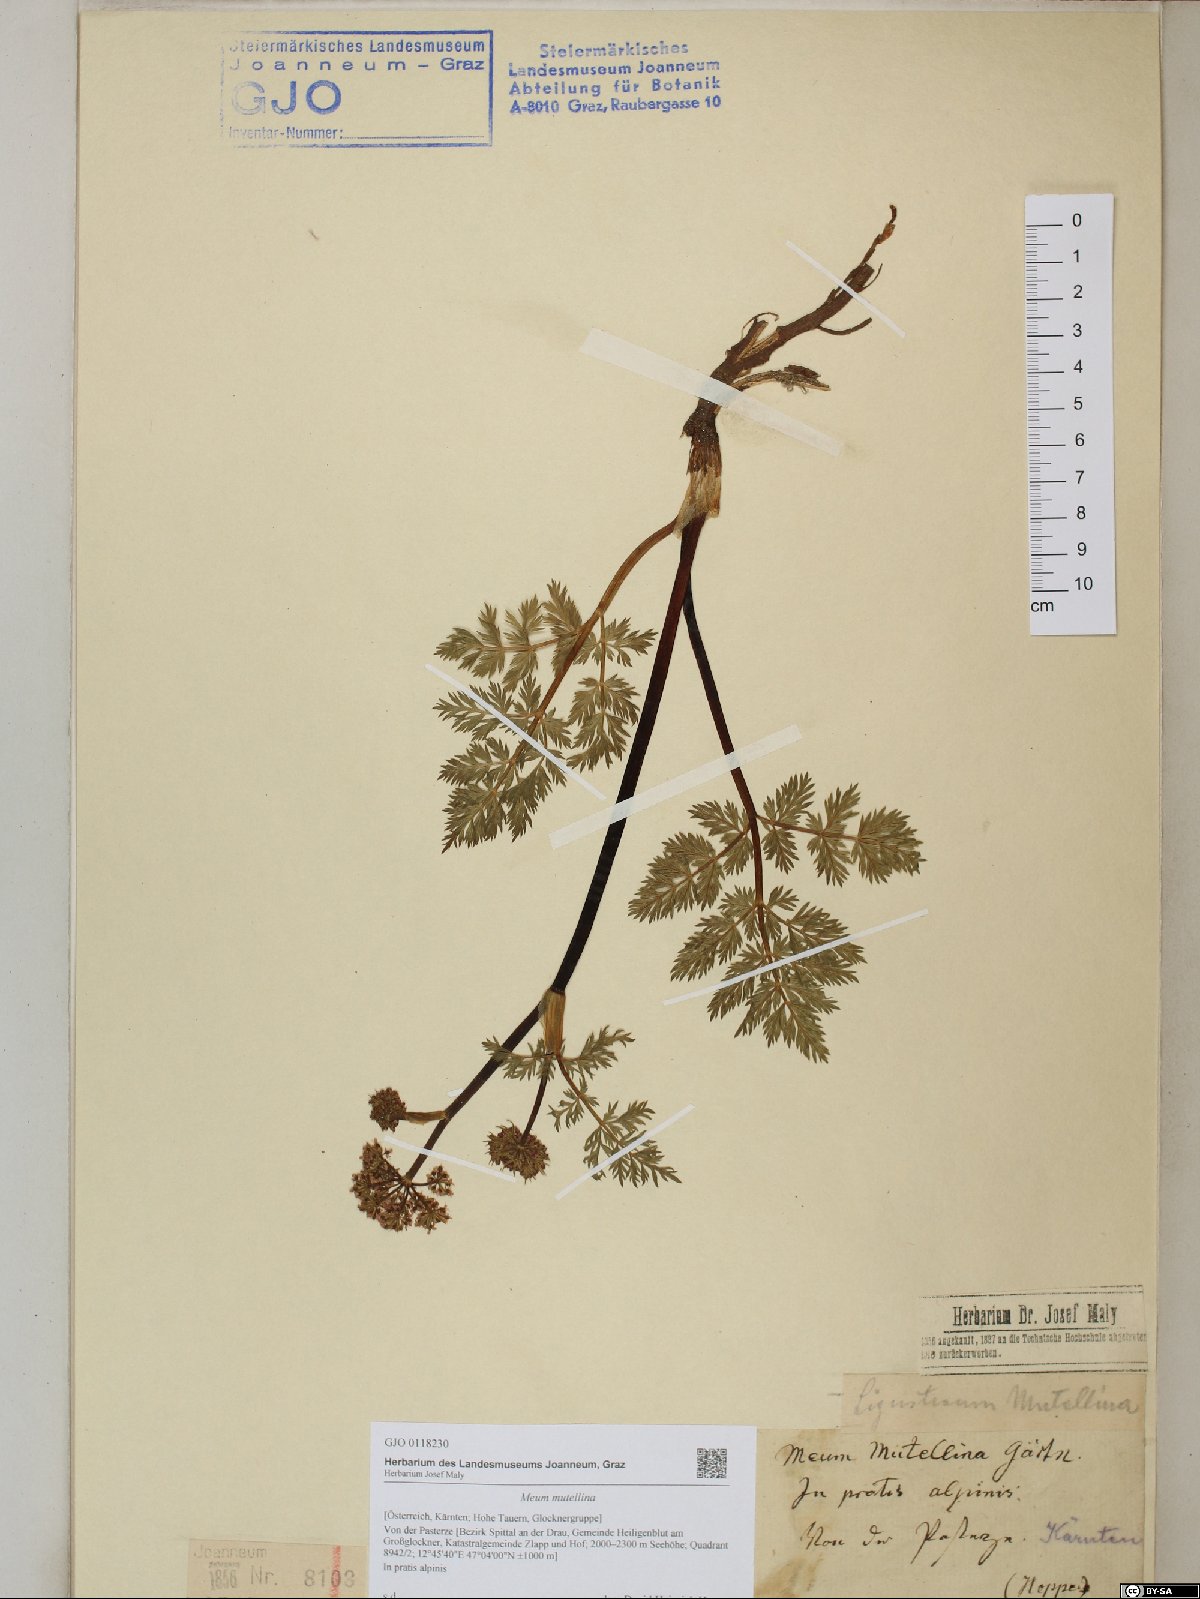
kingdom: Plantae
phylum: Tracheophyta
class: Magnoliopsida
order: Apiales
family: Apiaceae
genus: Mutellina
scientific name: Mutellina adonidifolia
